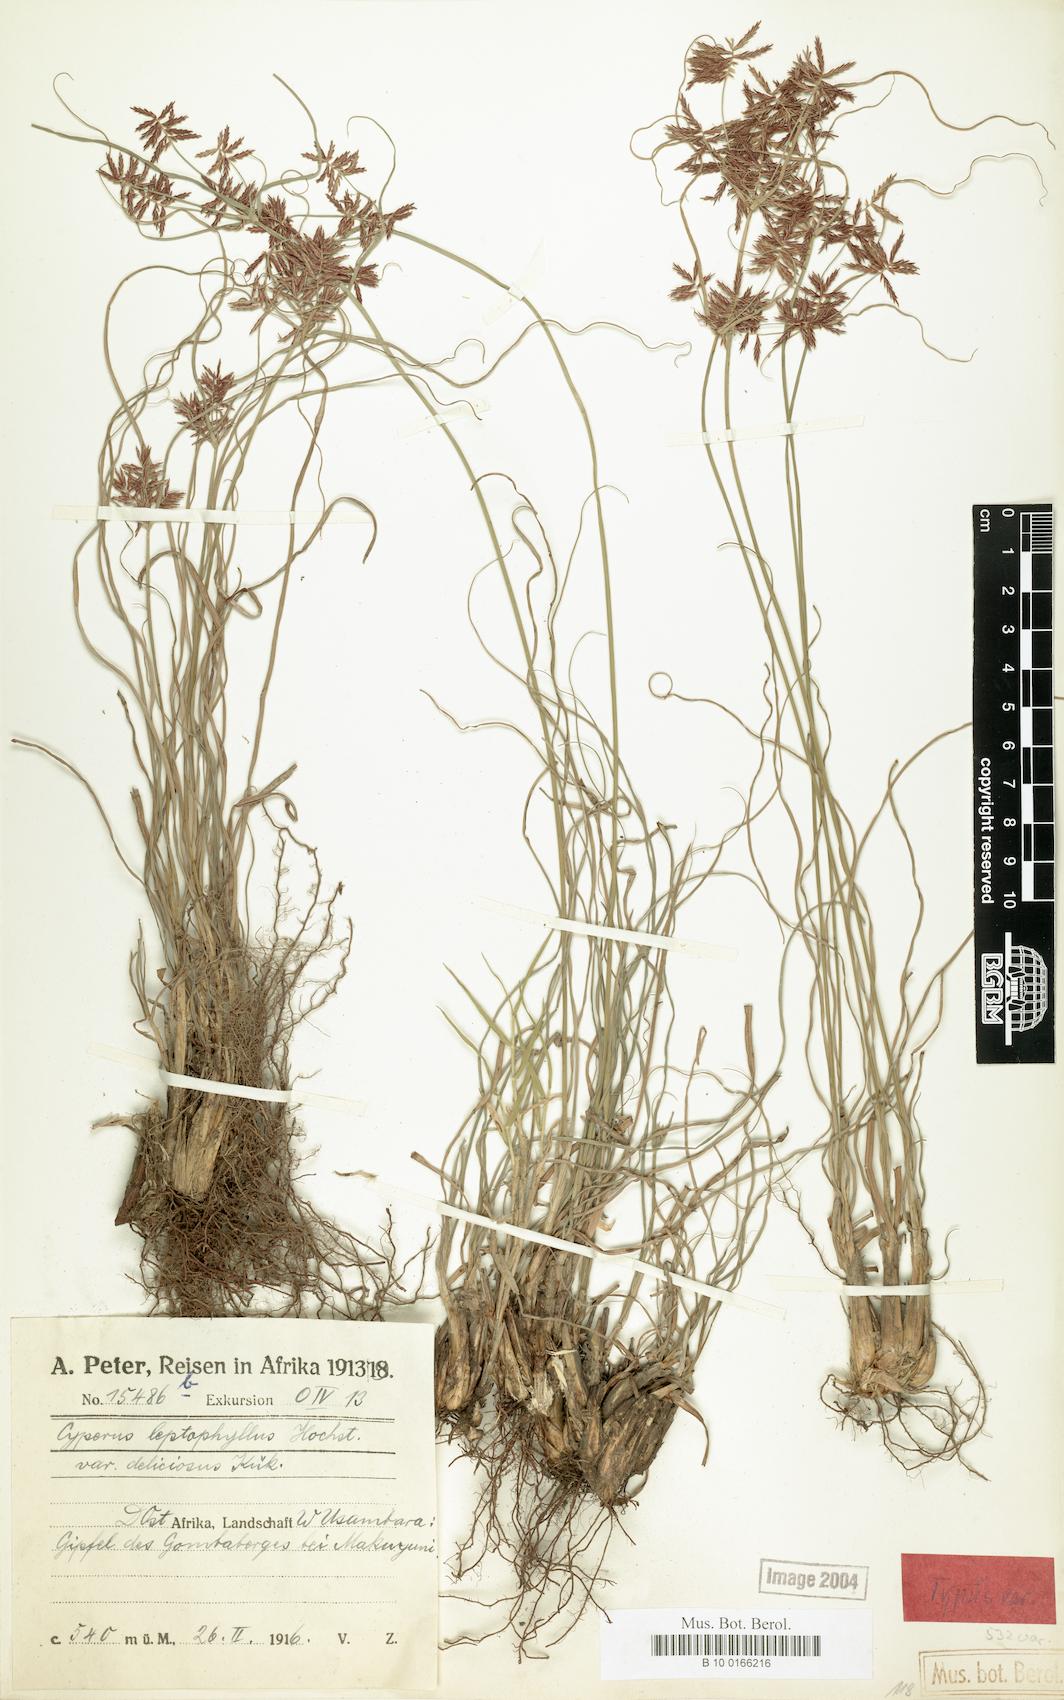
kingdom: Plantae
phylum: Tracheophyta
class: Liliopsida
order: Poales
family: Cyperaceae
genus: Cyperus
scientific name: Cyperus amauropus
